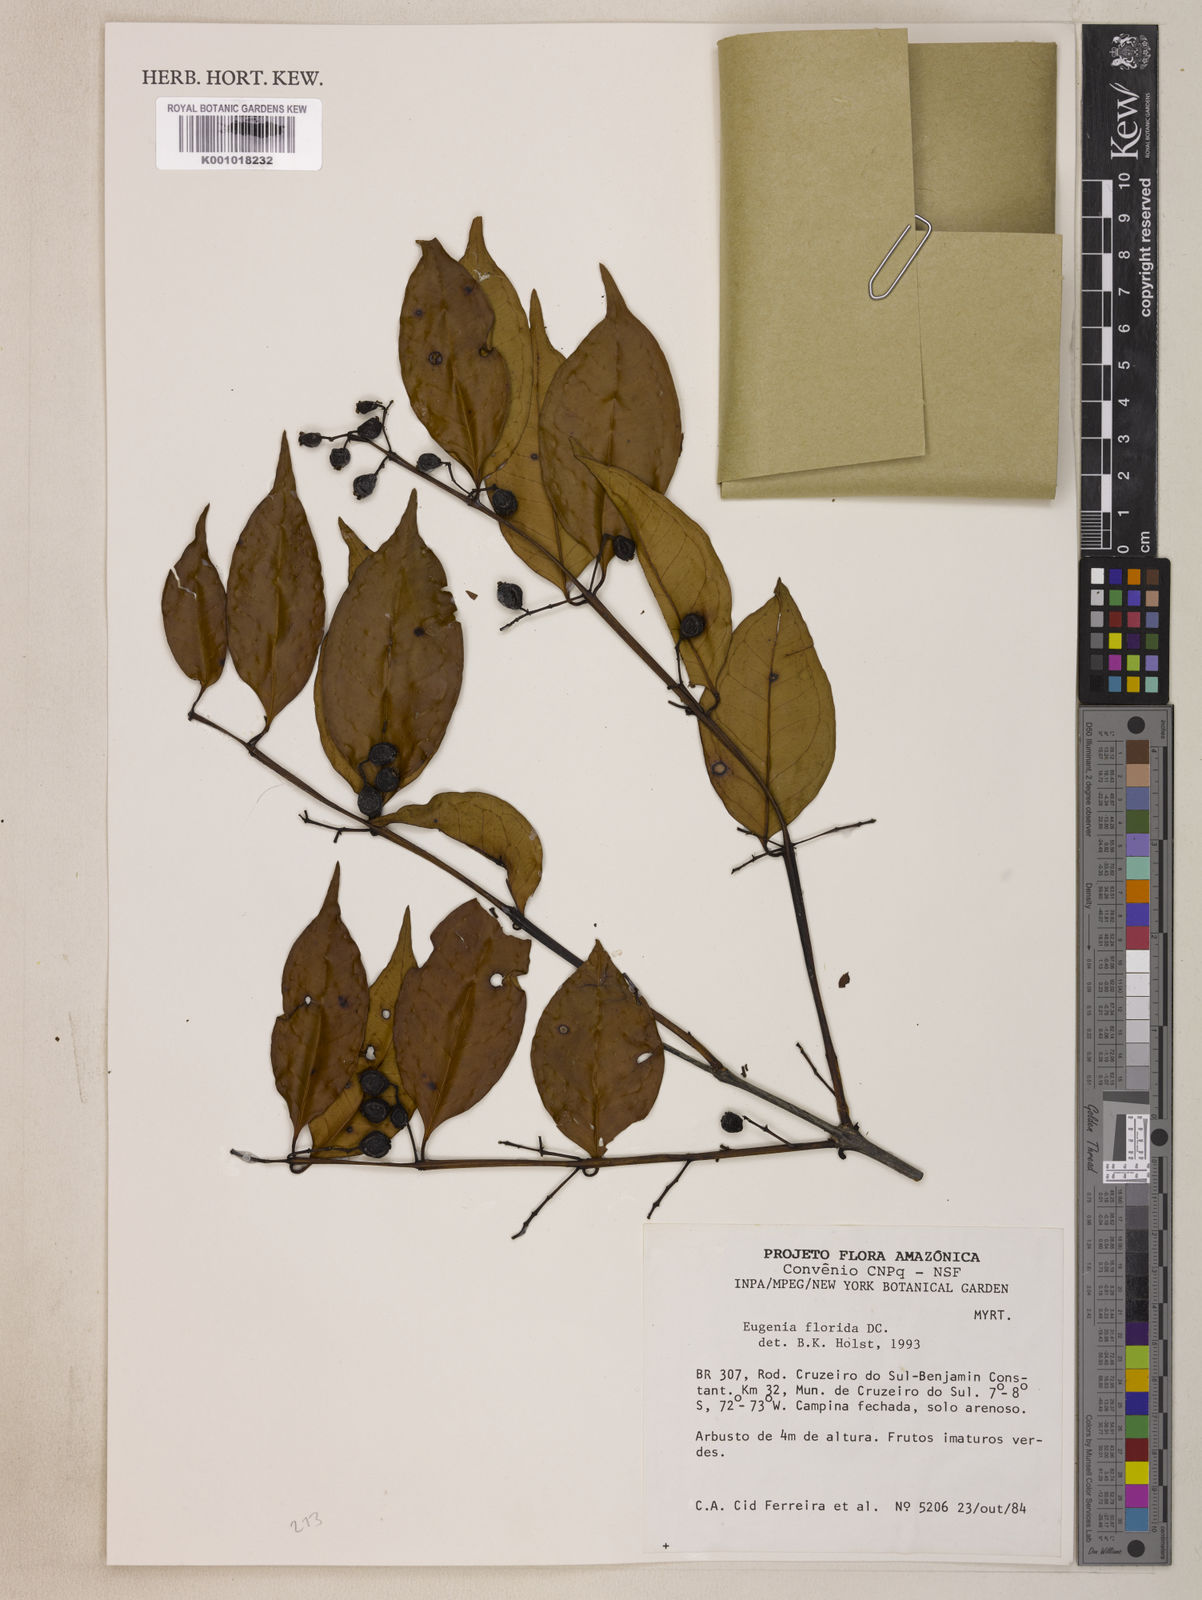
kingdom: Plantae
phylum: Tracheophyta
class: Magnoliopsida
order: Myrtales
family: Myrtaceae
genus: Eugenia
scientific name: Eugenia florida
